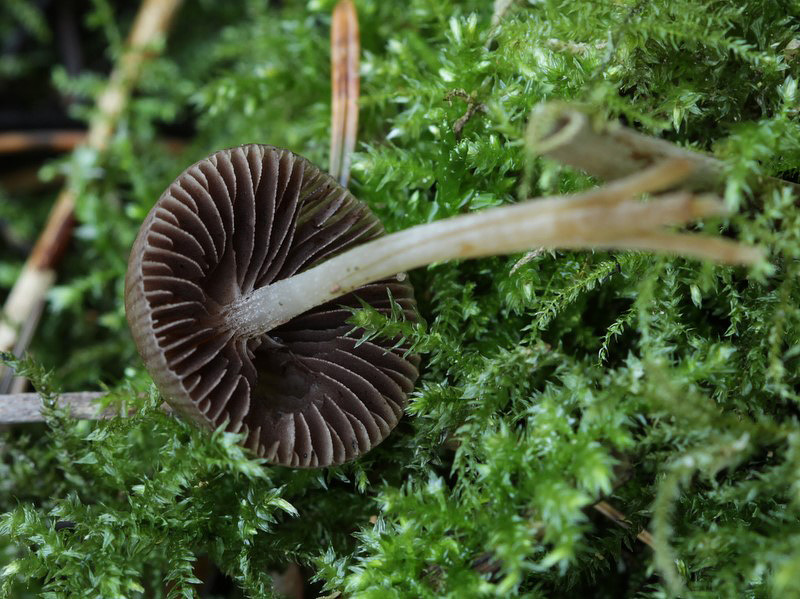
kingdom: Fungi
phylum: Basidiomycota
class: Agaricomycetes
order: Agaricales
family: Psathyrellaceae
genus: Psathyrella
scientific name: Psathyrella obtusata
